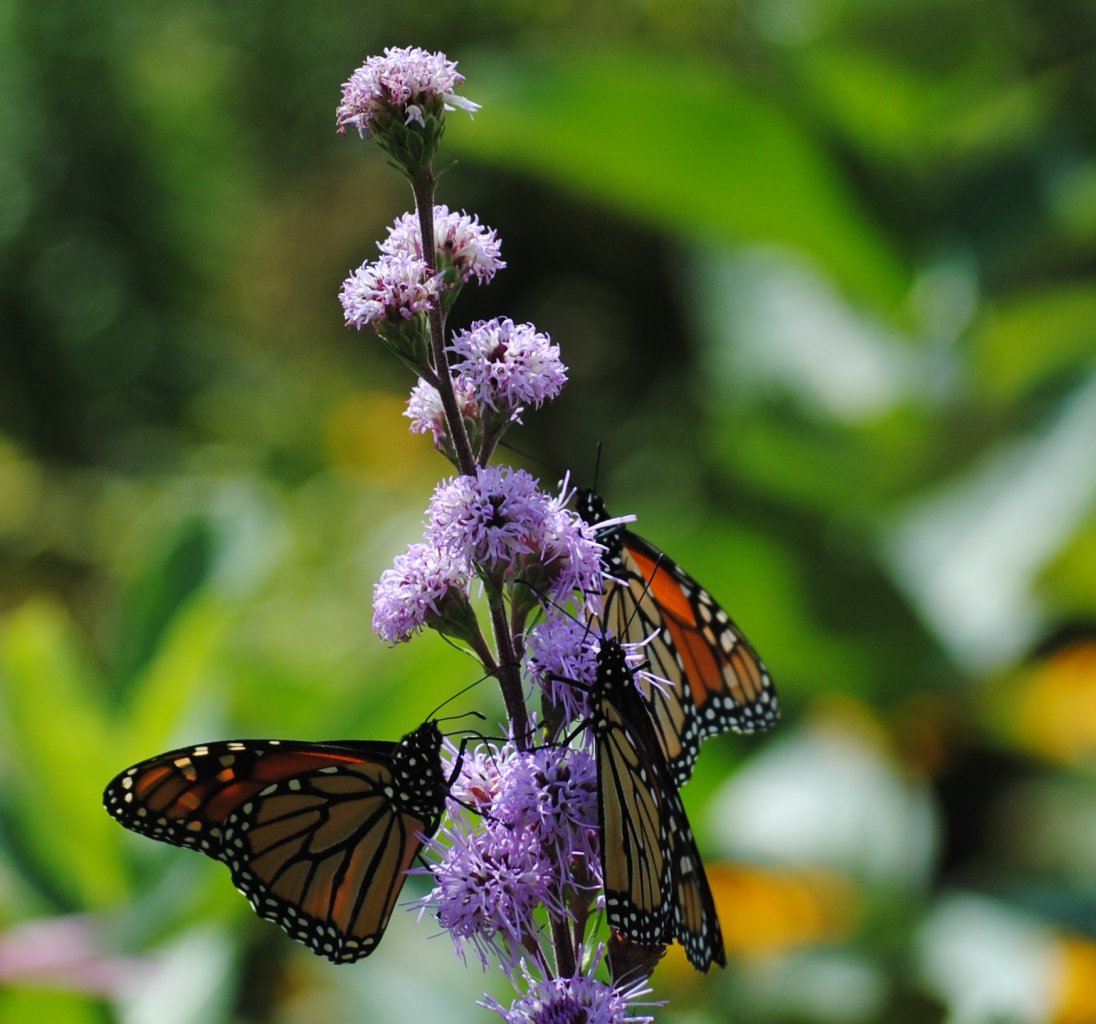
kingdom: Animalia
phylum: Arthropoda
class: Insecta
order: Lepidoptera
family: Nymphalidae
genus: Danaus
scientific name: Danaus plexippus
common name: Monarch
